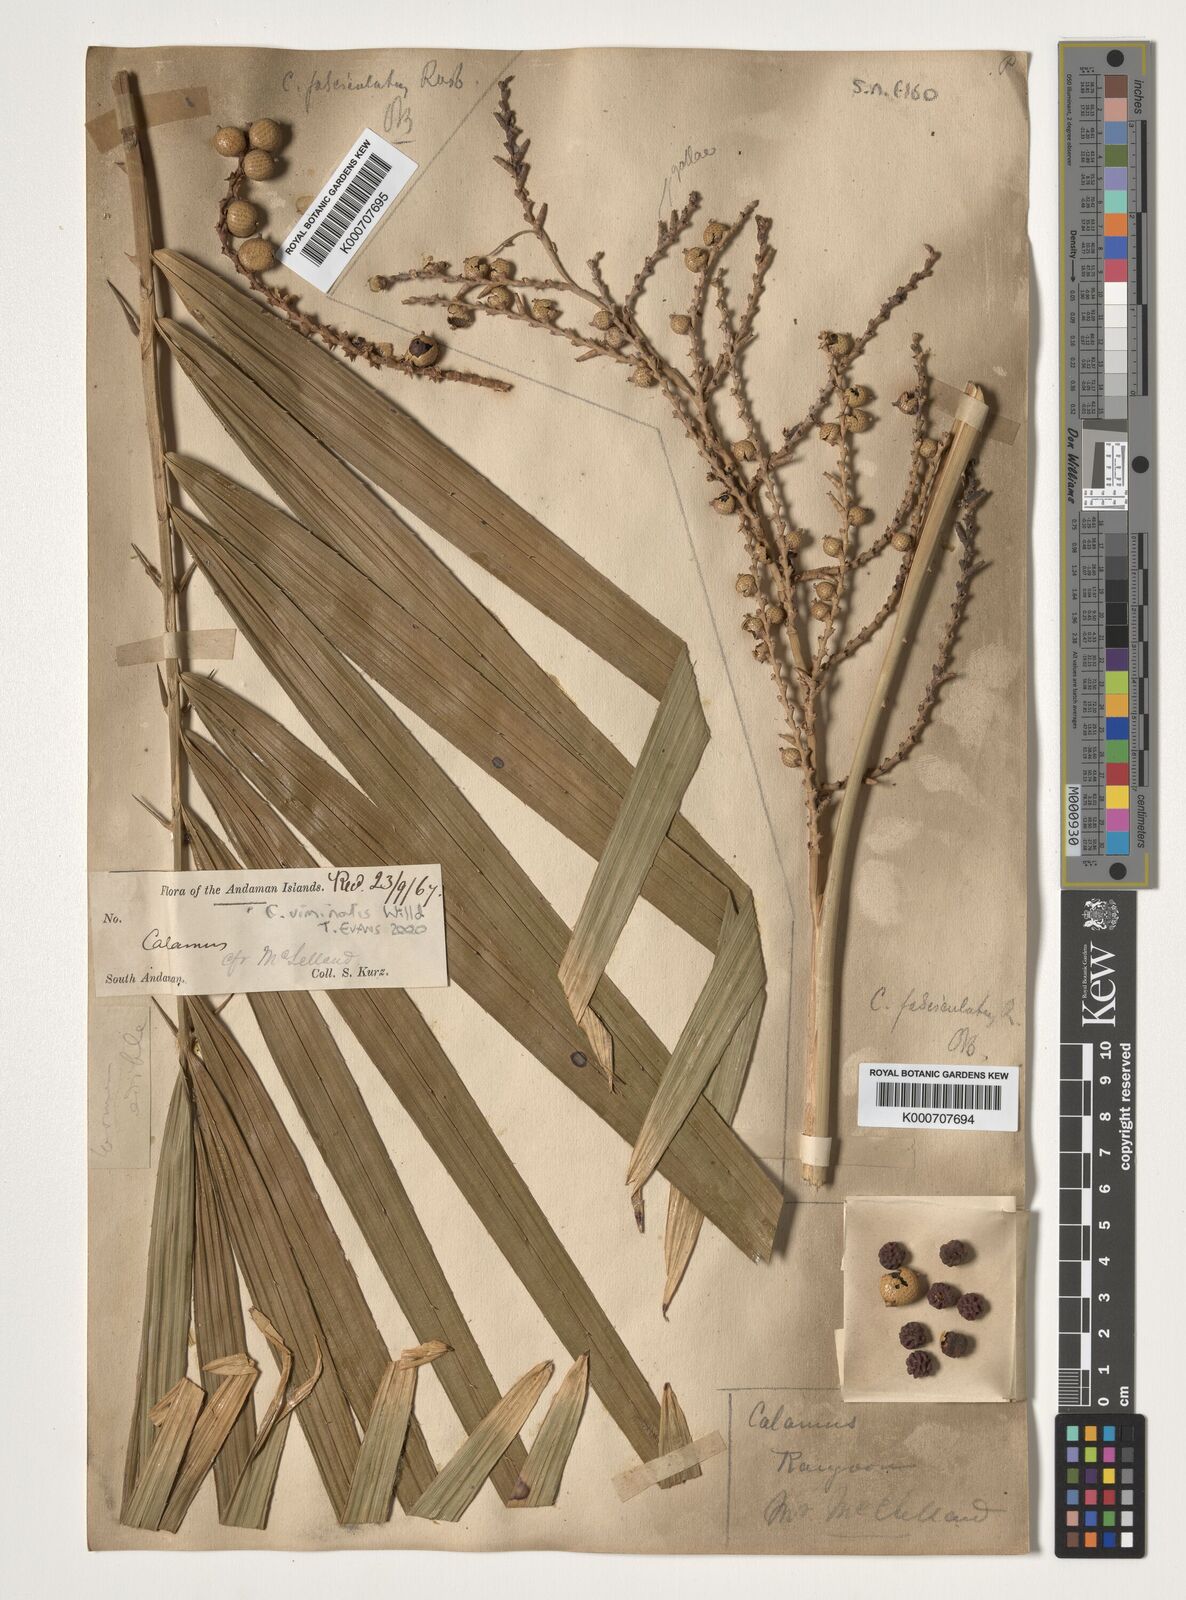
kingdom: Plantae
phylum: Tracheophyta
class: Liliopsida
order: Arecales
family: Arecaceae
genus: Calamus
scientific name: Calamus viminalis
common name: Osier-like rattan palm
